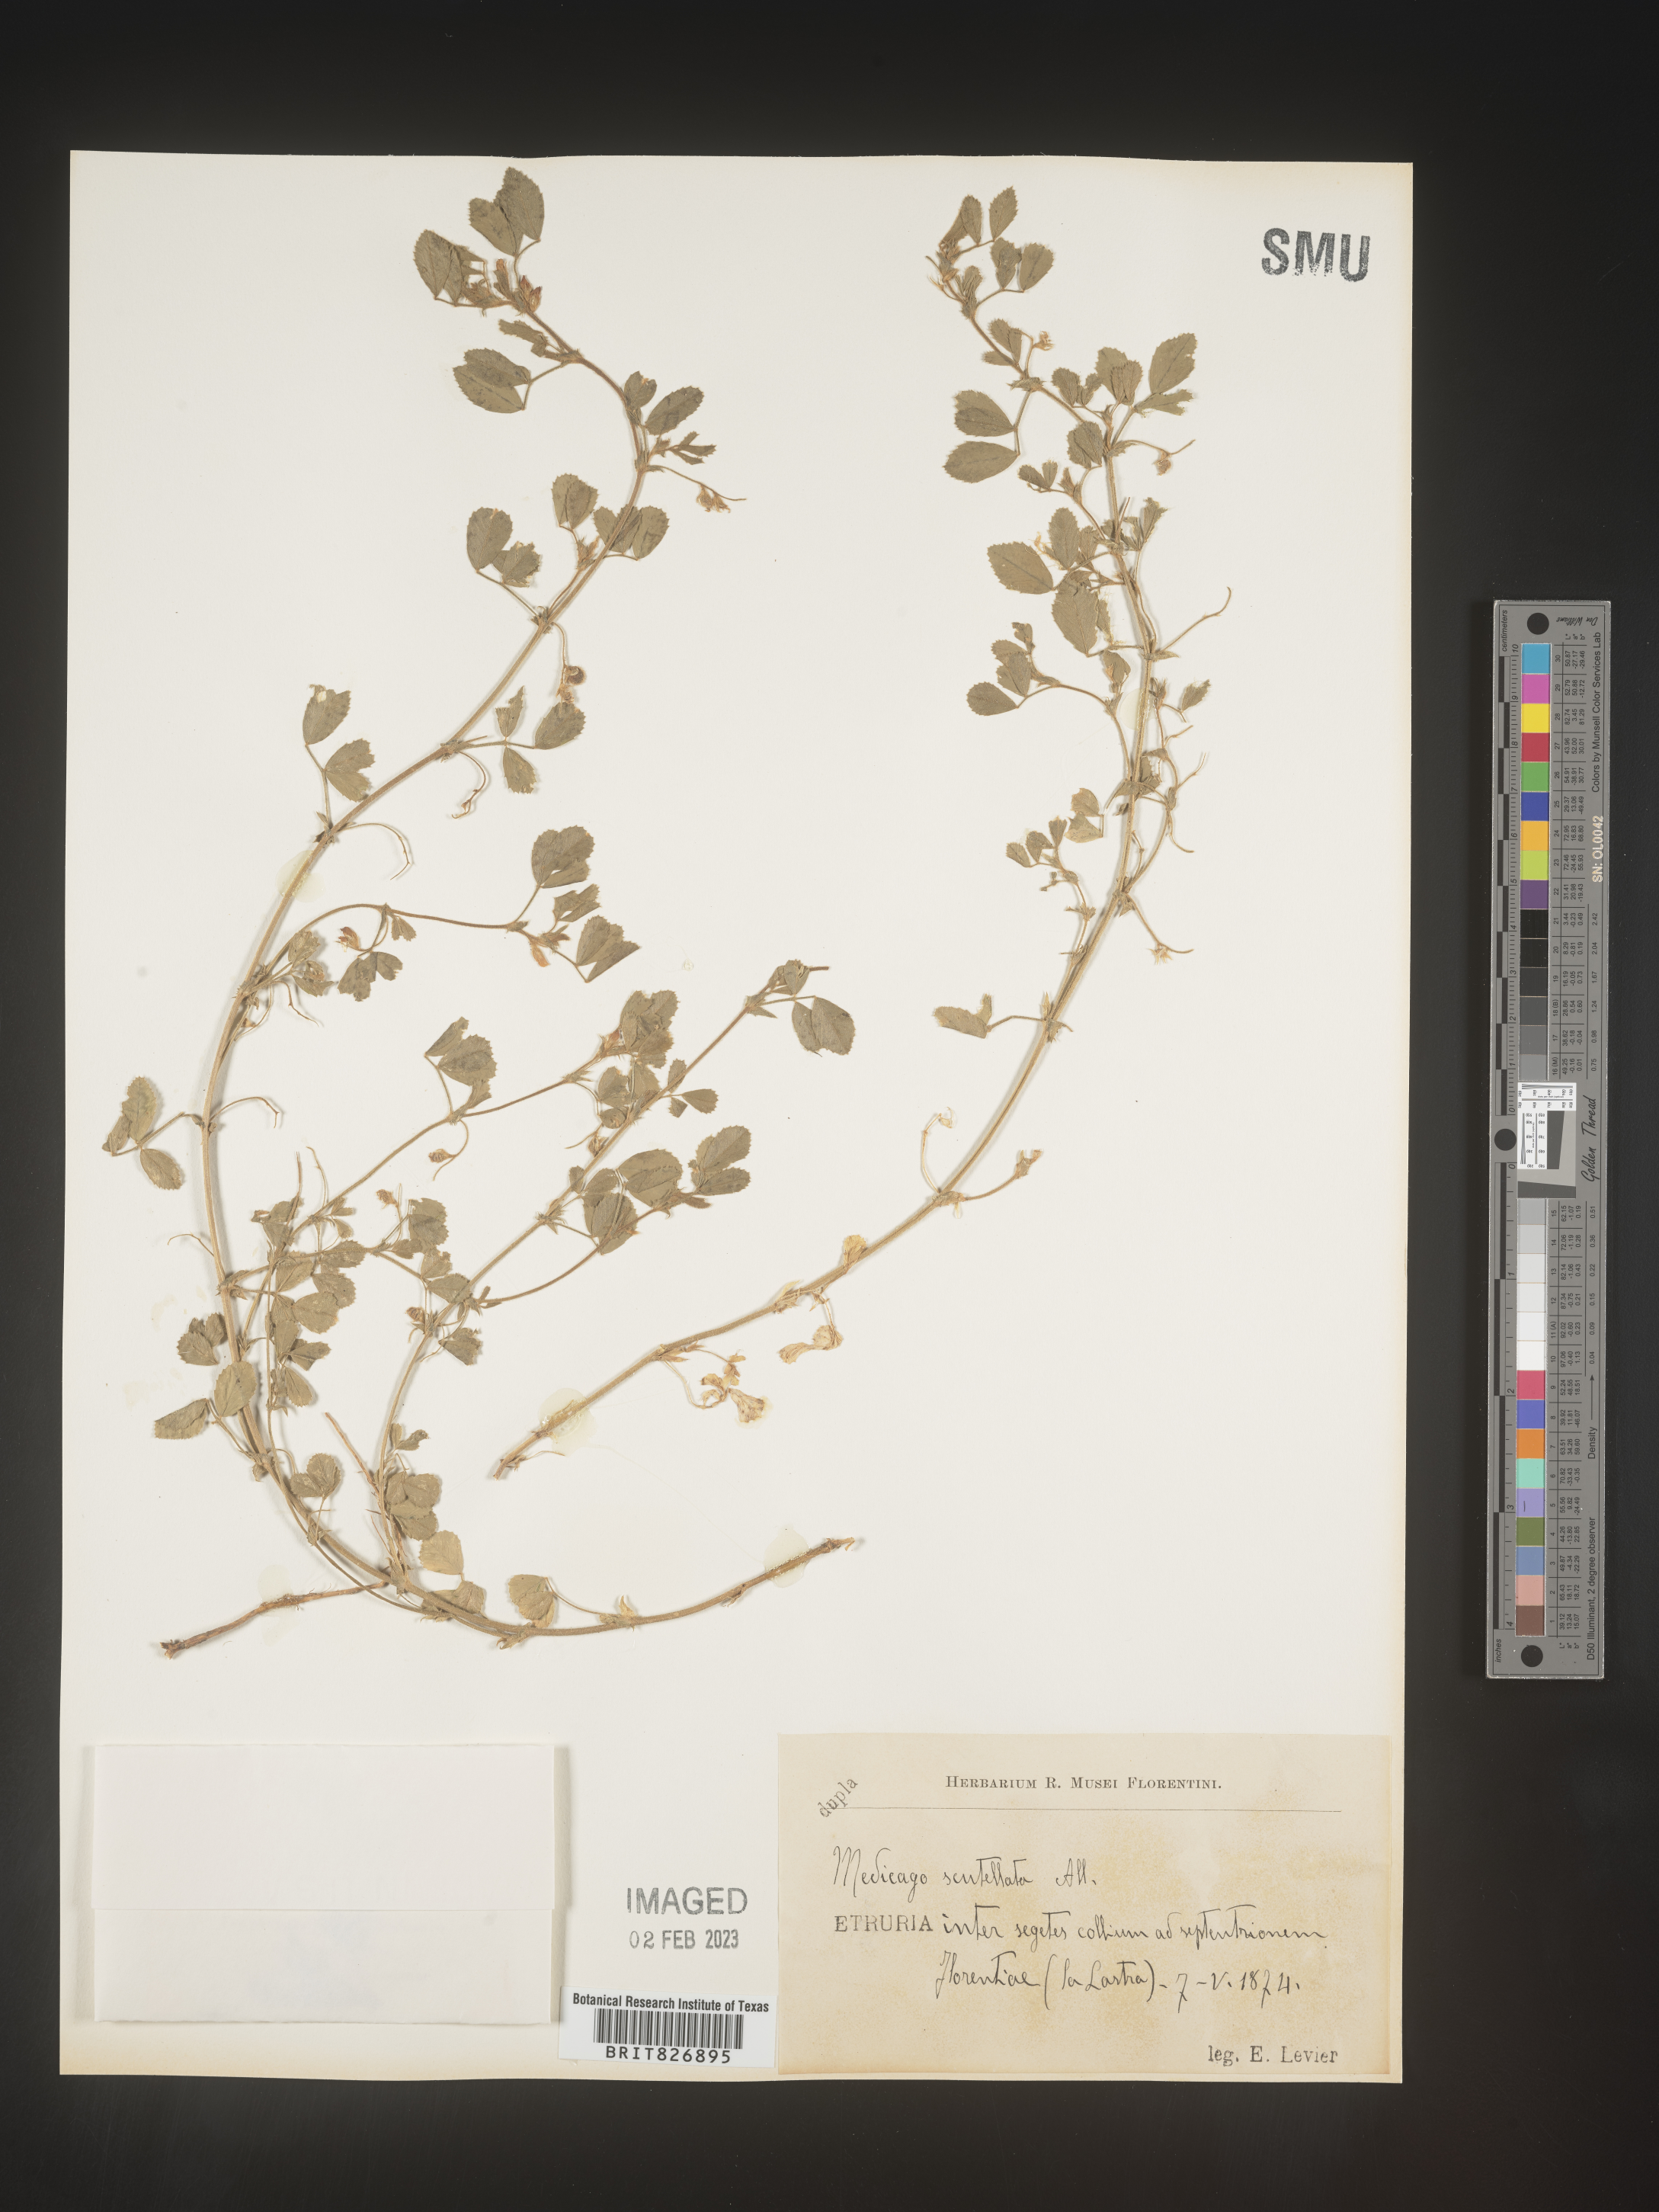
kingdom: Plantae
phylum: Tracheophyta
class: Magnoliopsida
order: Fabales
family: Fabaceae
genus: Medicago
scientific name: Medicago
